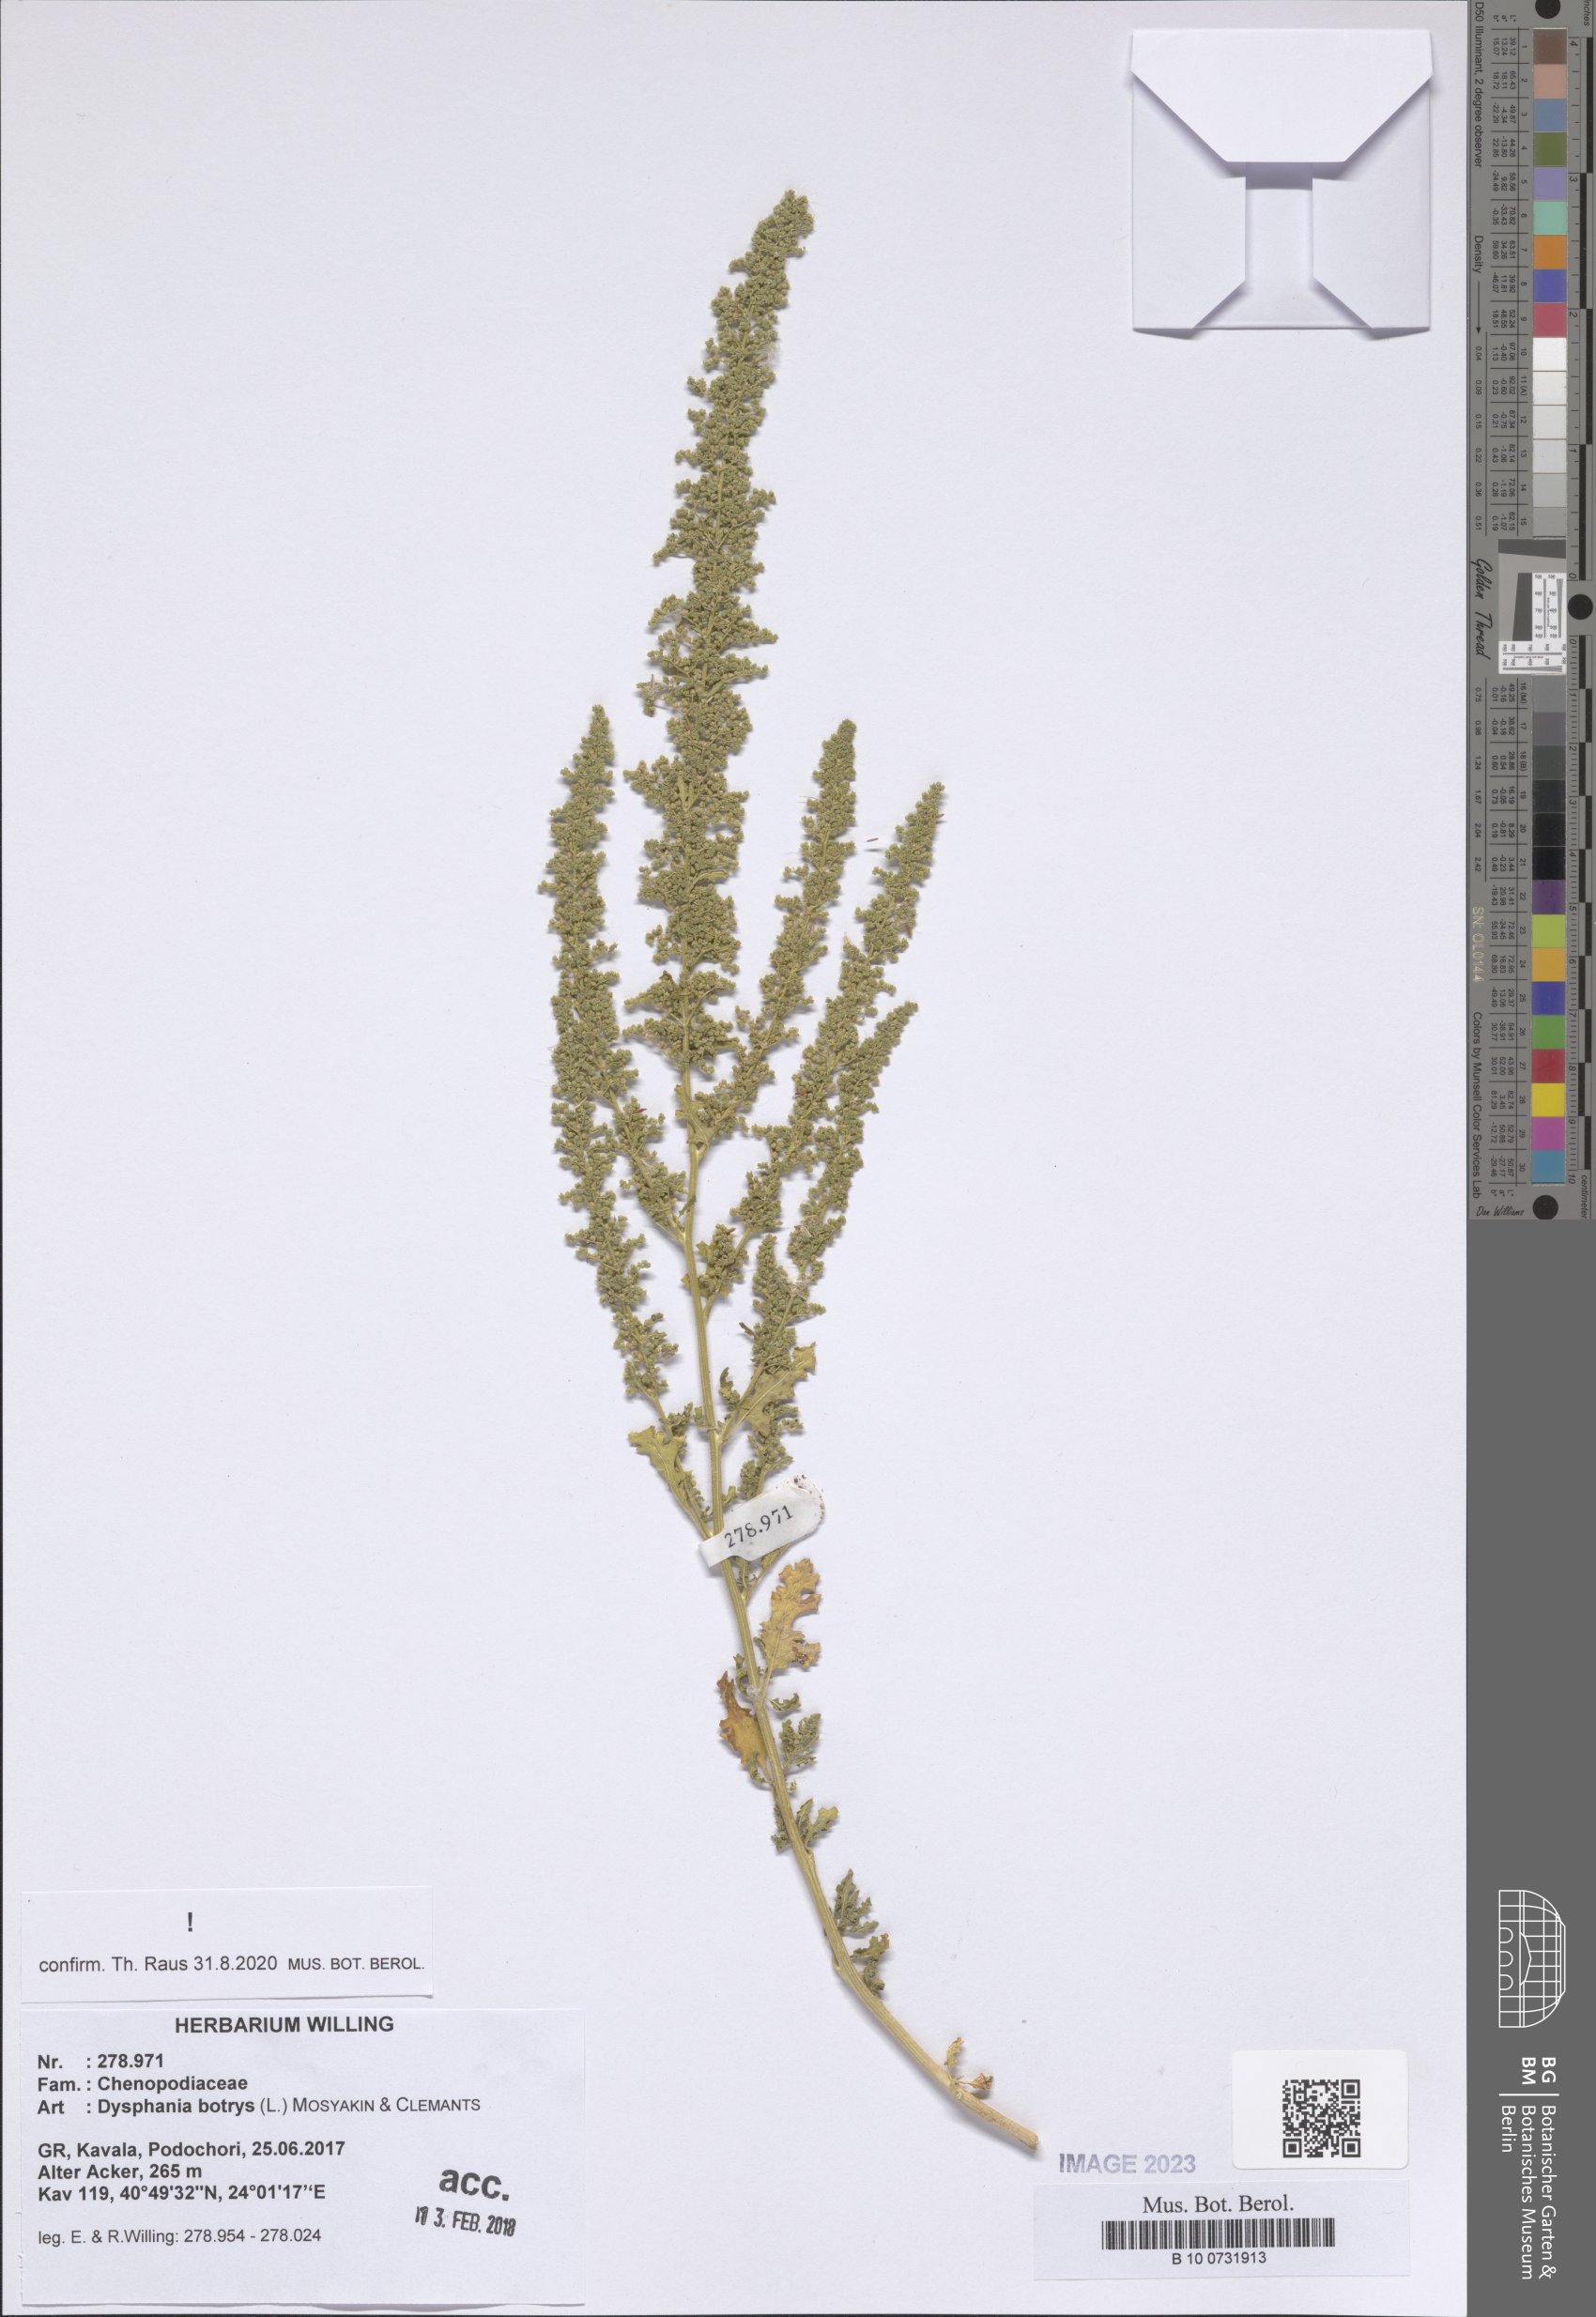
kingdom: Plantae
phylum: Tracheophyta
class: Magnoliopsida
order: Caryophyllales
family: Amaranthaceae
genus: Dysphania
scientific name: Dysphania botrys
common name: Feather-geranium
